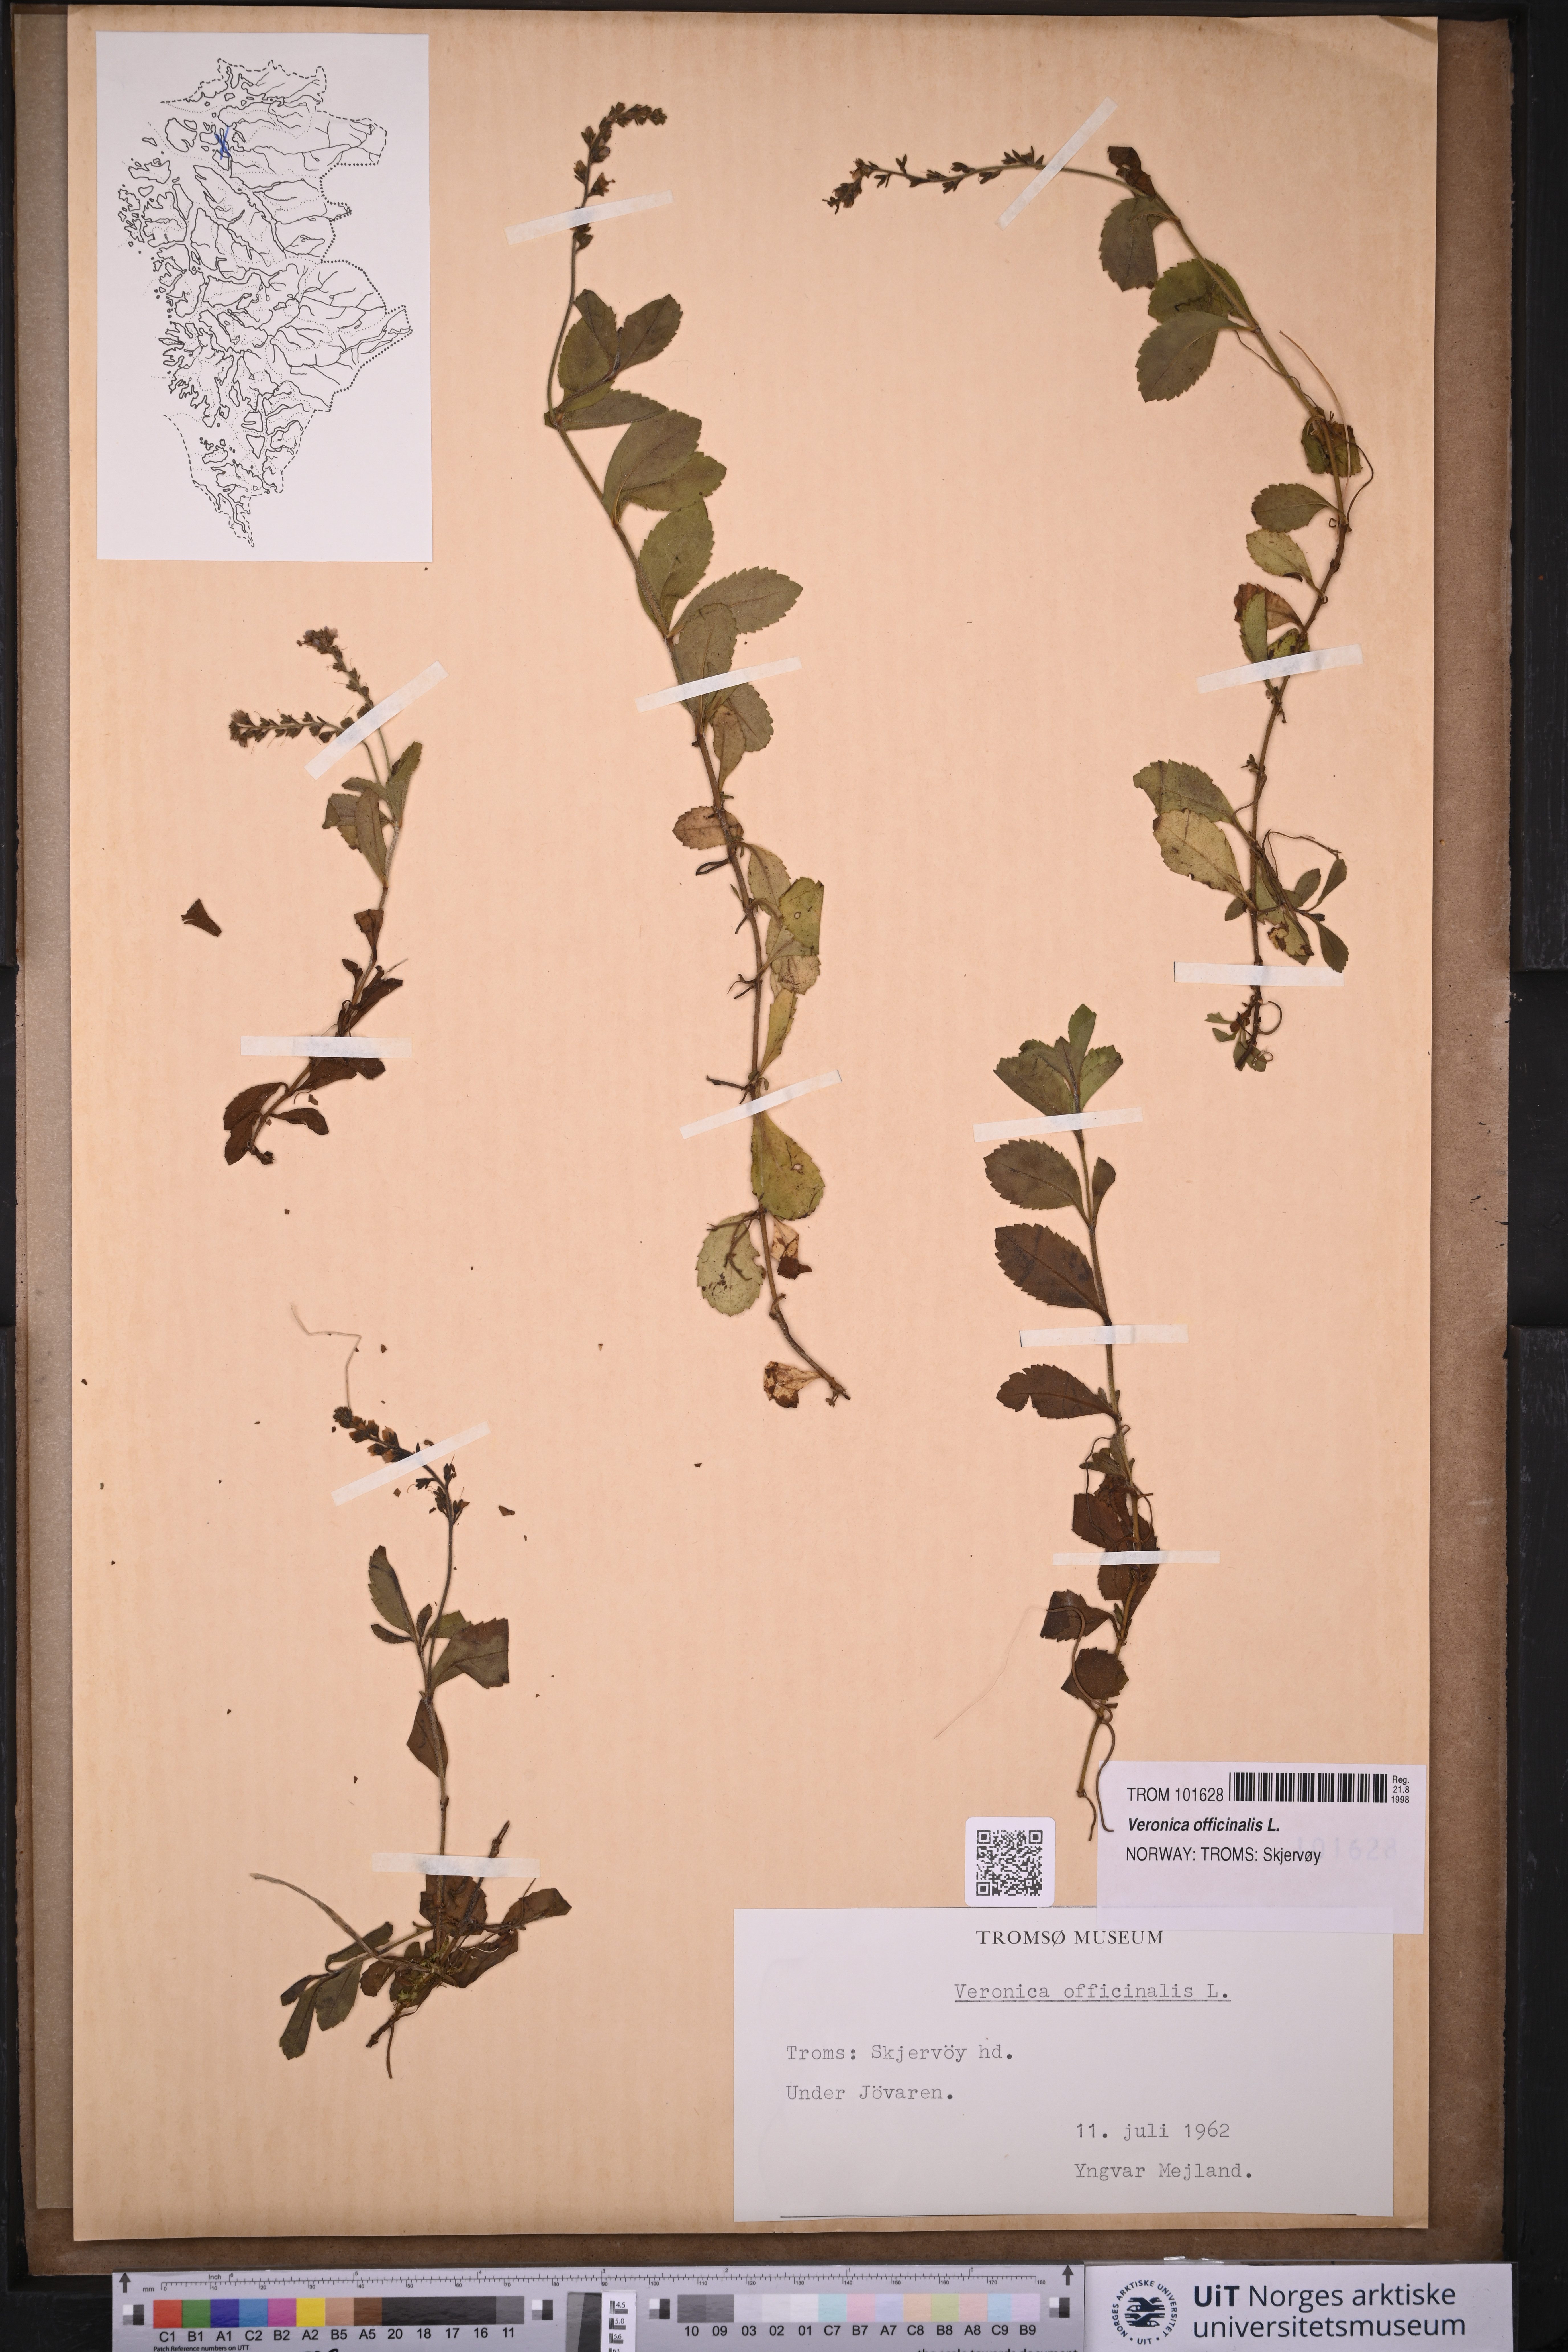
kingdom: Plantae
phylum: Tracheophyta
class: Magnoliopsida
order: Lamiales
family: Plantaginaceae
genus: Veronica
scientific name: Veronica officinalis
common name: Common speedwell
